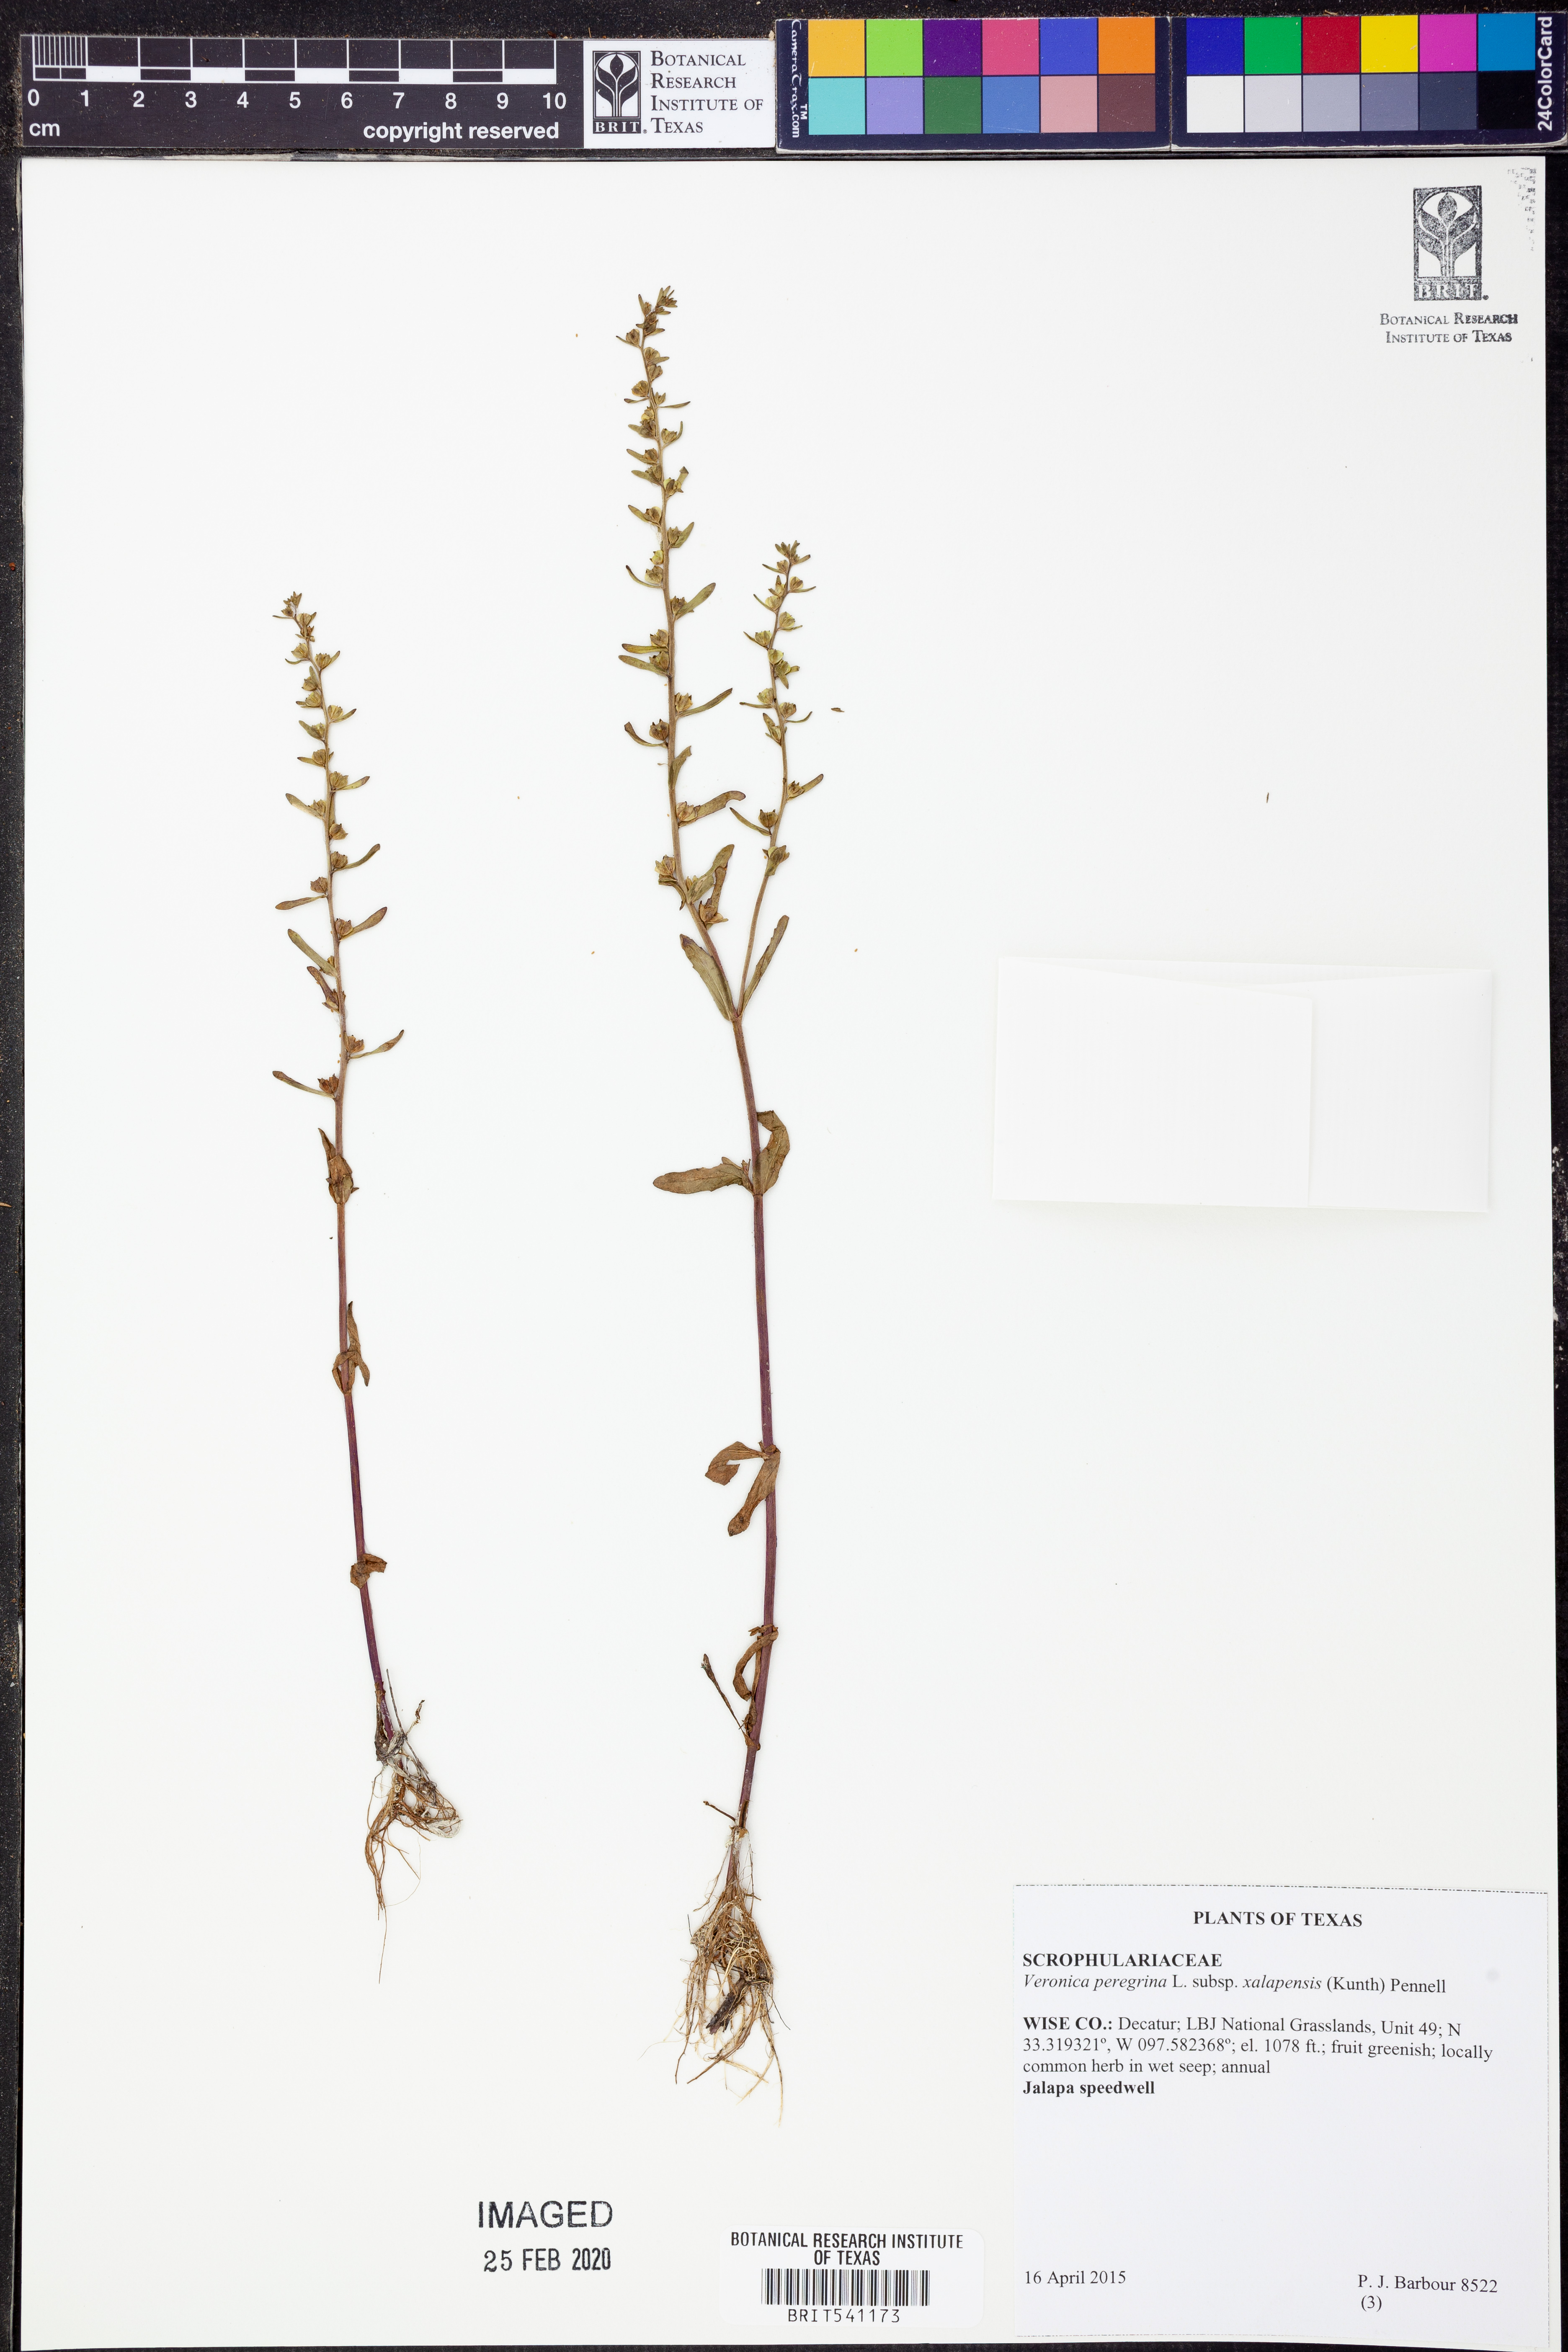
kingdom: Plantae
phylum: Tracheophyta
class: Magnoliopsida
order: Lamiales
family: Plantaginaceae
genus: Veronica
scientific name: Veronica peregrina
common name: Neckweed
